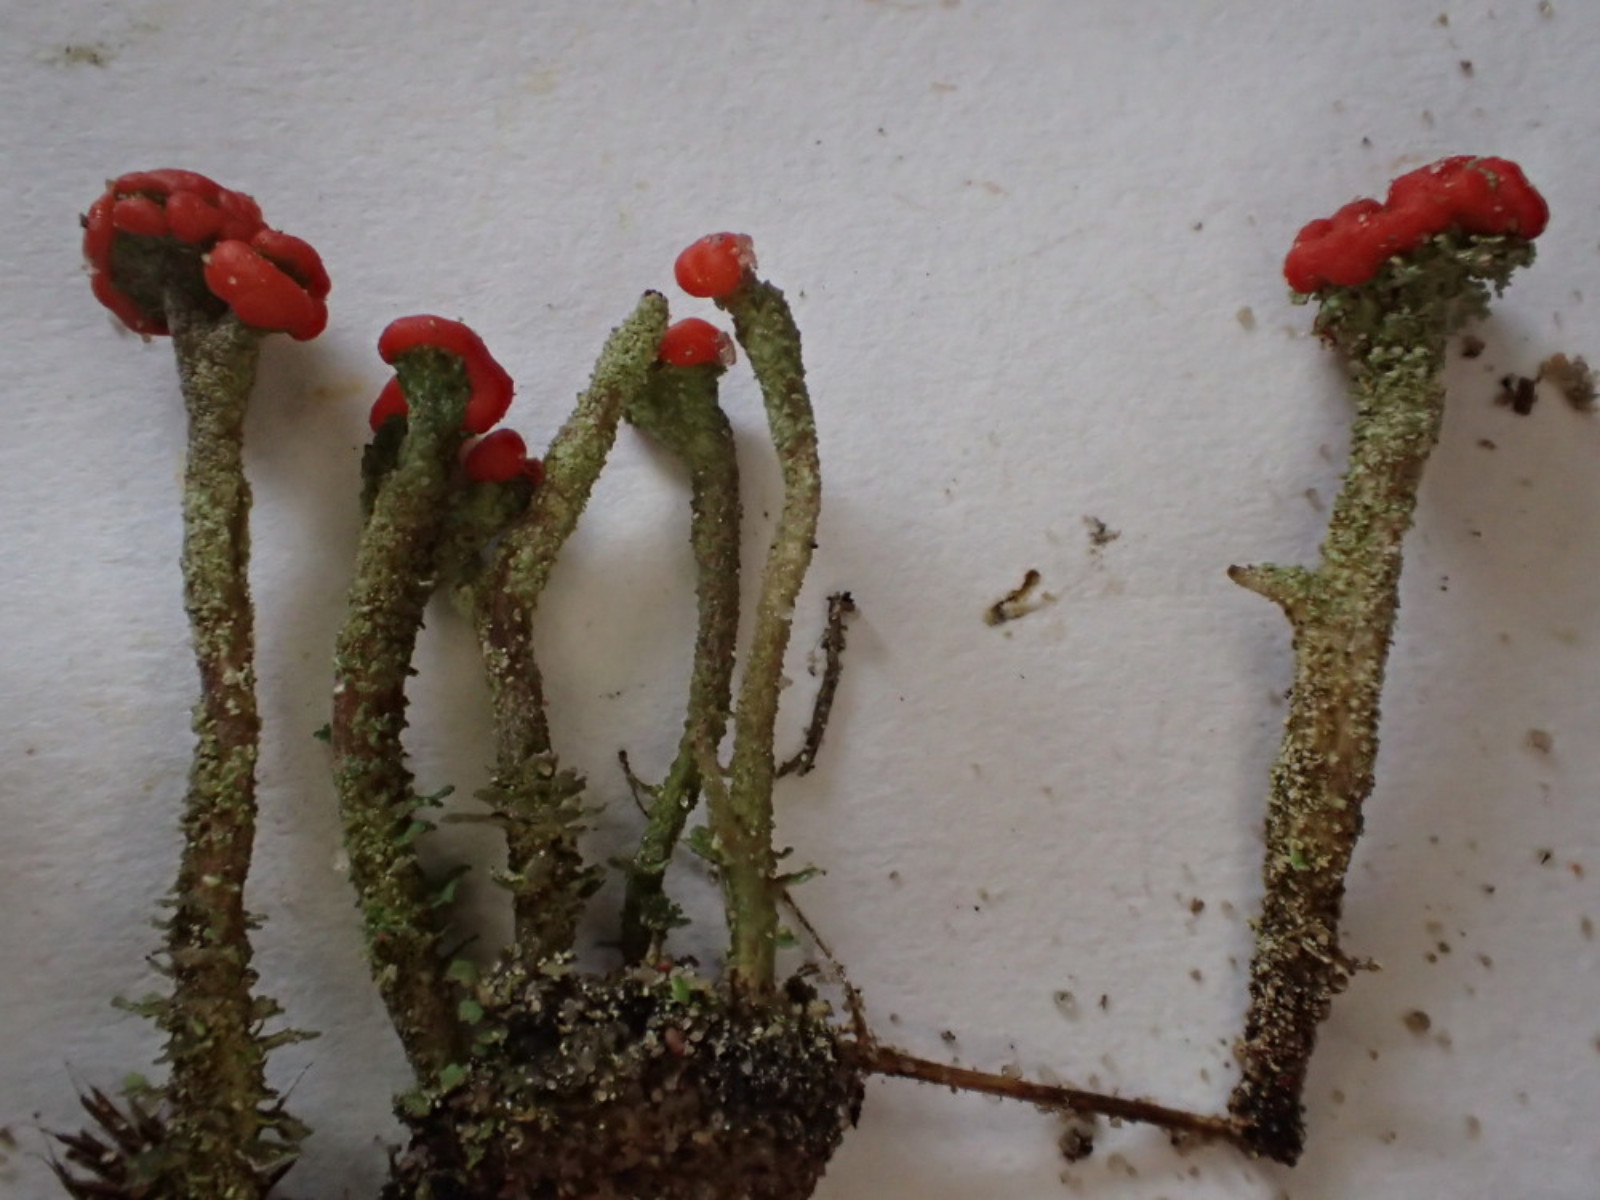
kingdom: Fungi
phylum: Ascomycota
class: Lecanoromycetes
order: Lecanorales
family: Cladoniaceae
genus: Cladonia
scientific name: Cladonia floerkeana
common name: lakrød bægerlav
